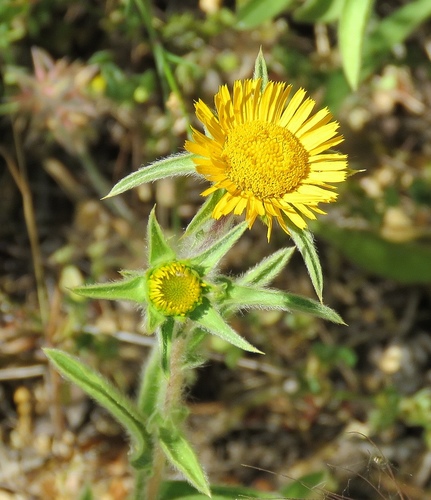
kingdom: Plantae
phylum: Tracheophyta
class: Magnoliopsida
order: Asterales
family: Asteraceae
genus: Pallenis
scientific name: Pallenis spinosa
